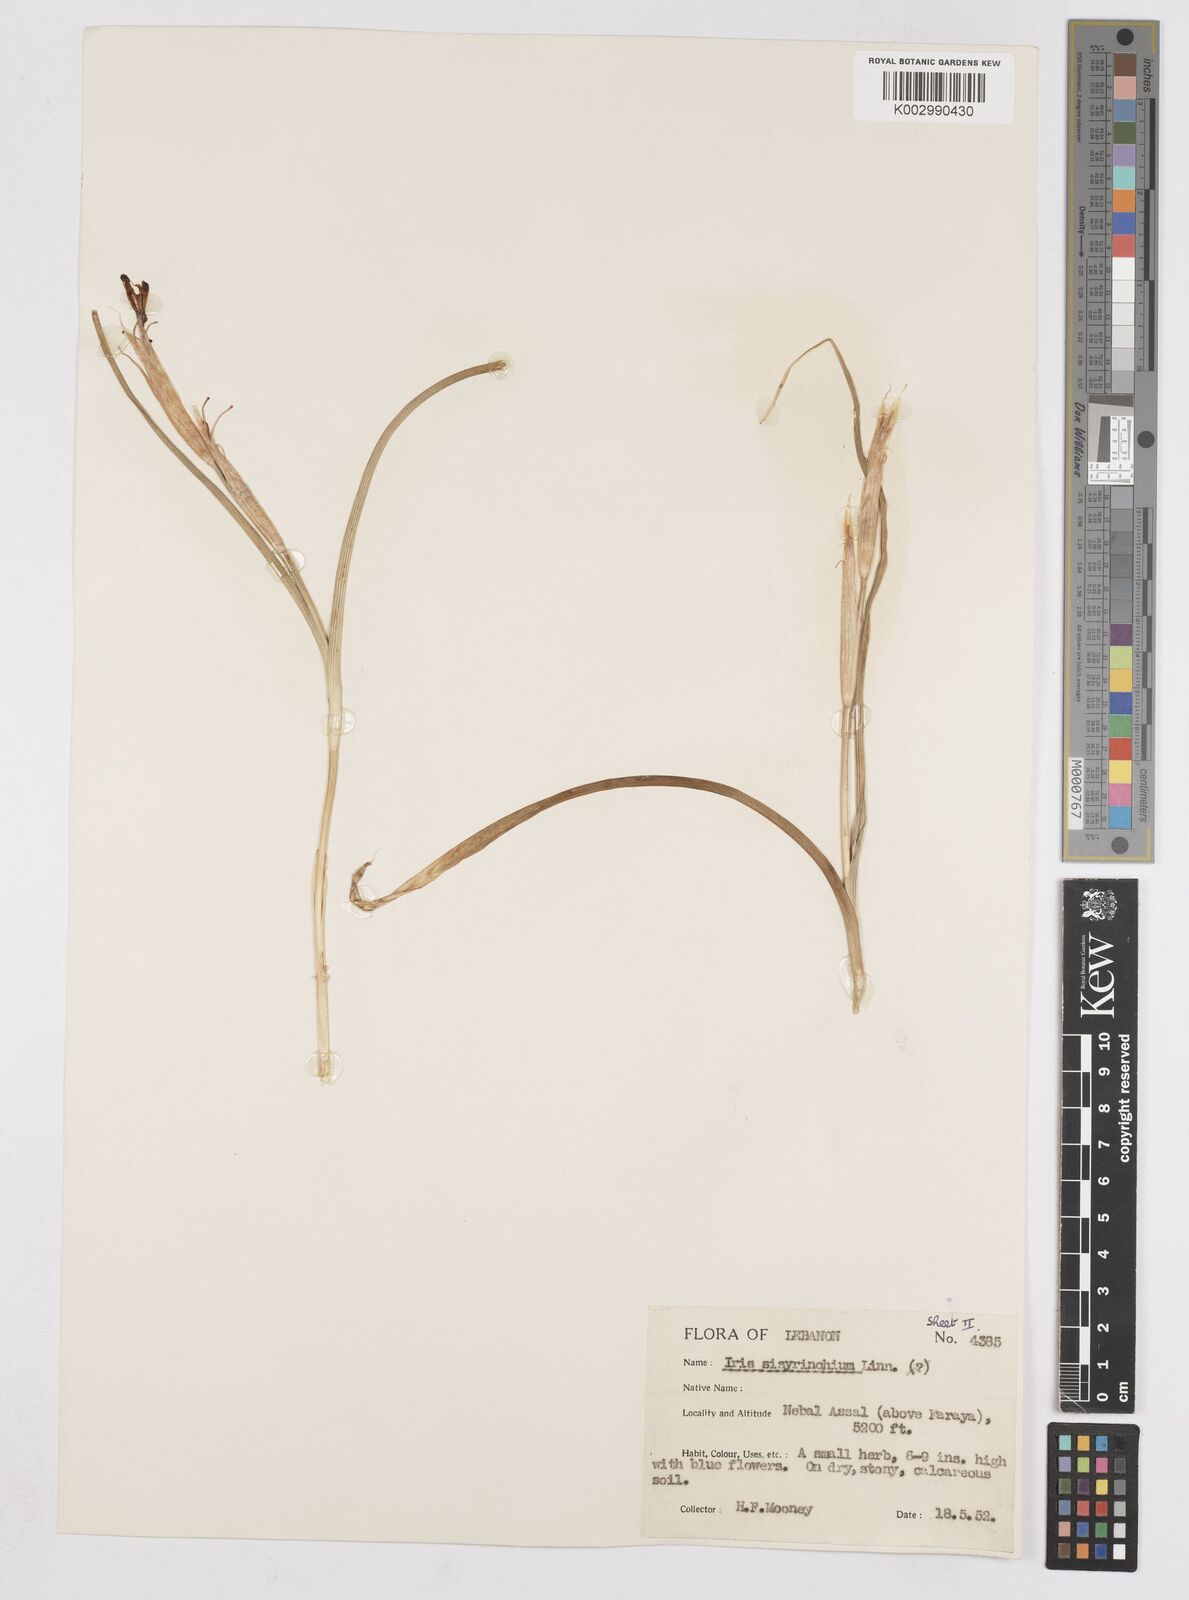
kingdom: Plantae
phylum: Tracheophyta
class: Liliopsida
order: Asparagales
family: Iridaceae
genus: Moraea
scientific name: Moraea sisyrinchium
